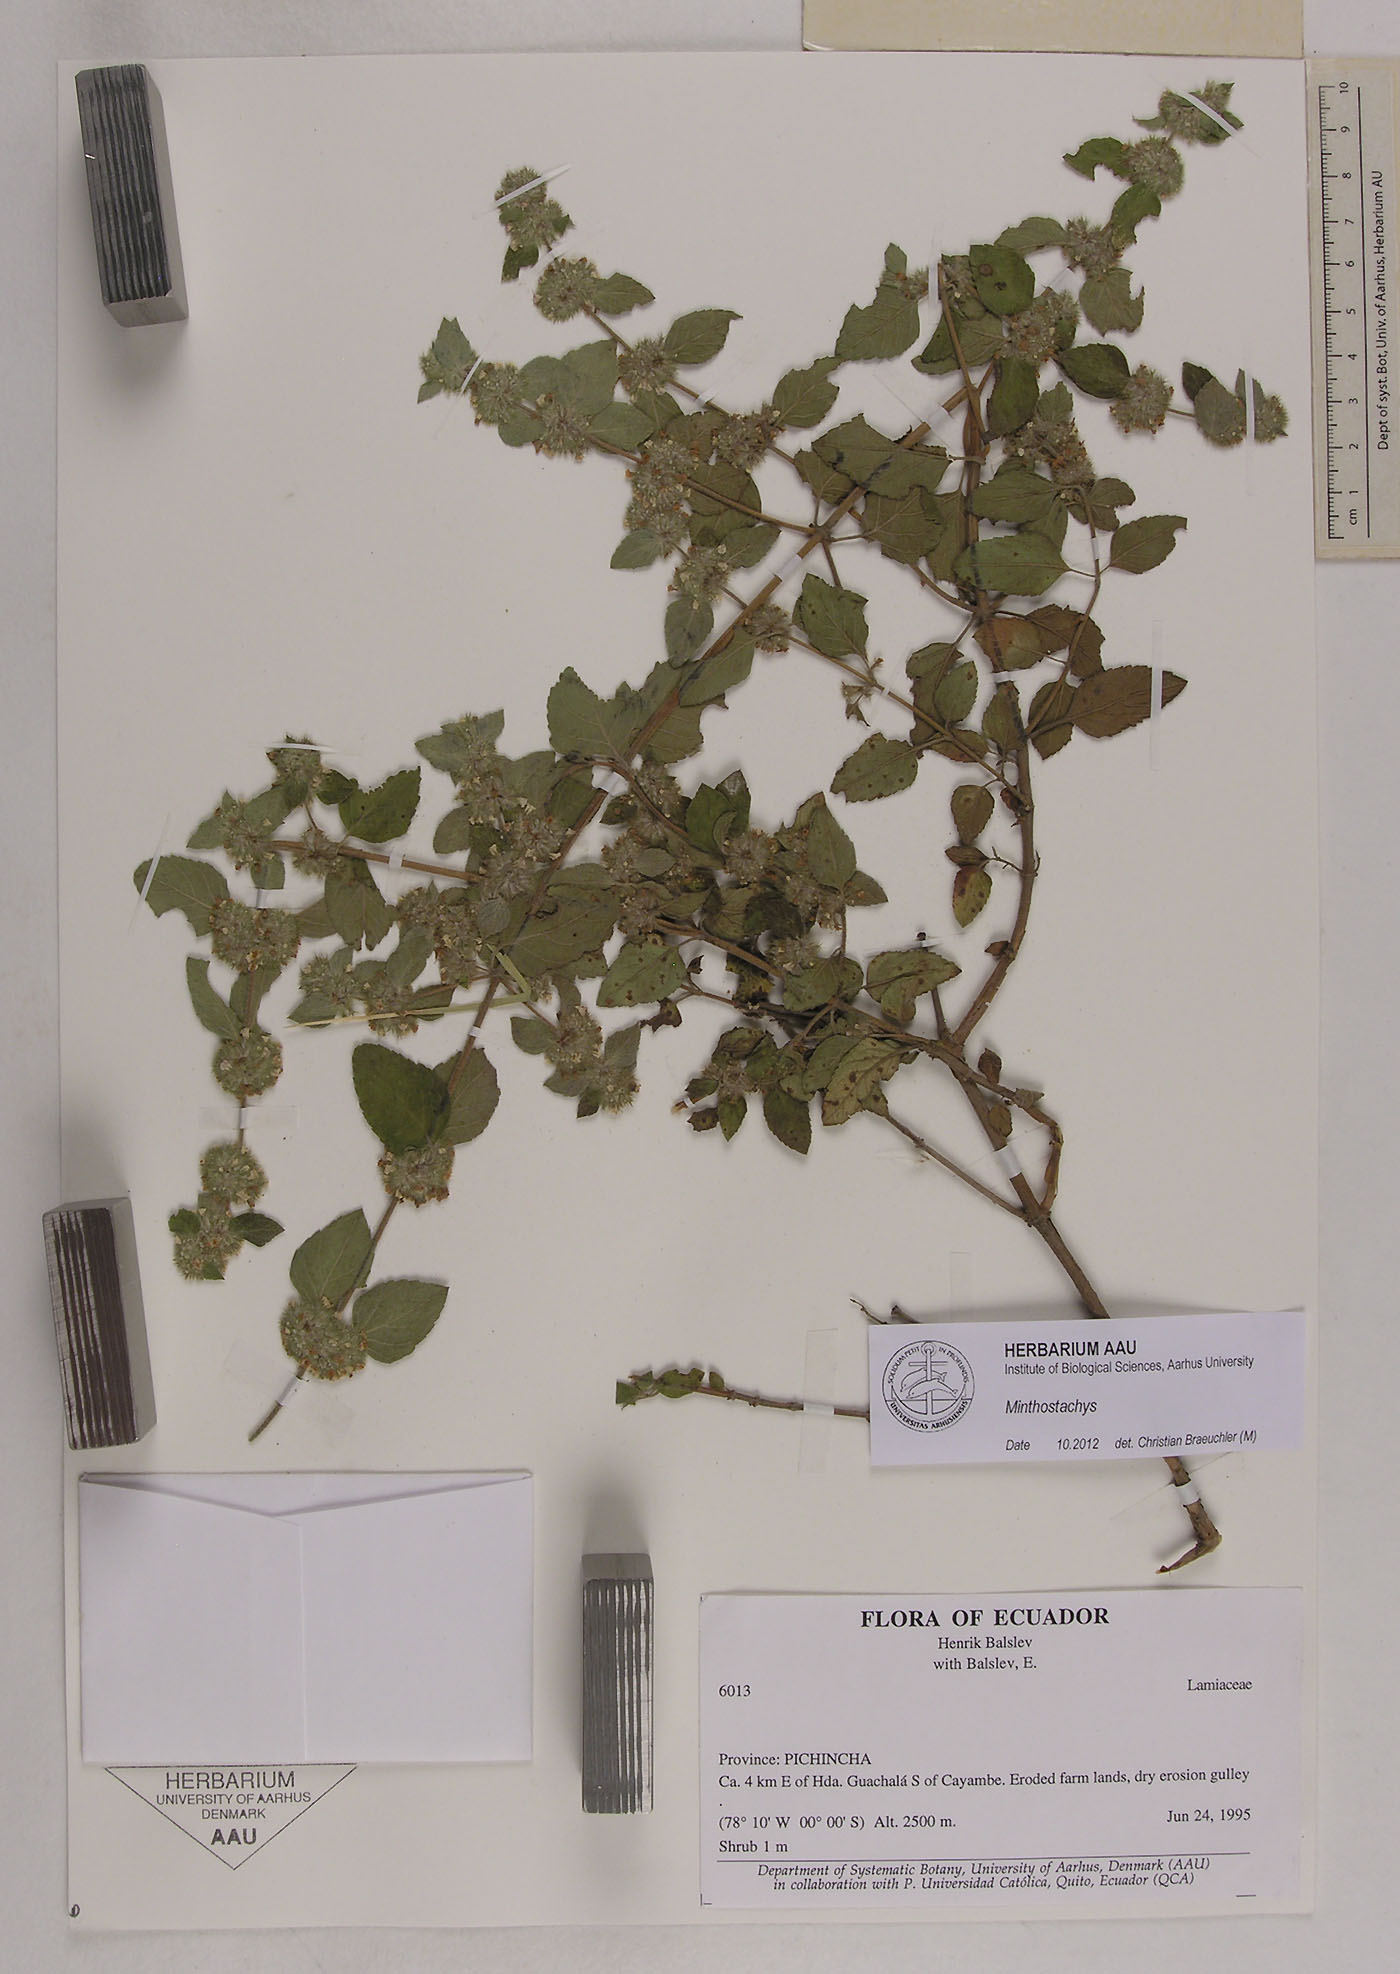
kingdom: Plantae
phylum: Tracheophyta
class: Magnoliopsida
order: Lamiales
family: Lamiaceae
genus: Minthostachys
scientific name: Minthostachys
